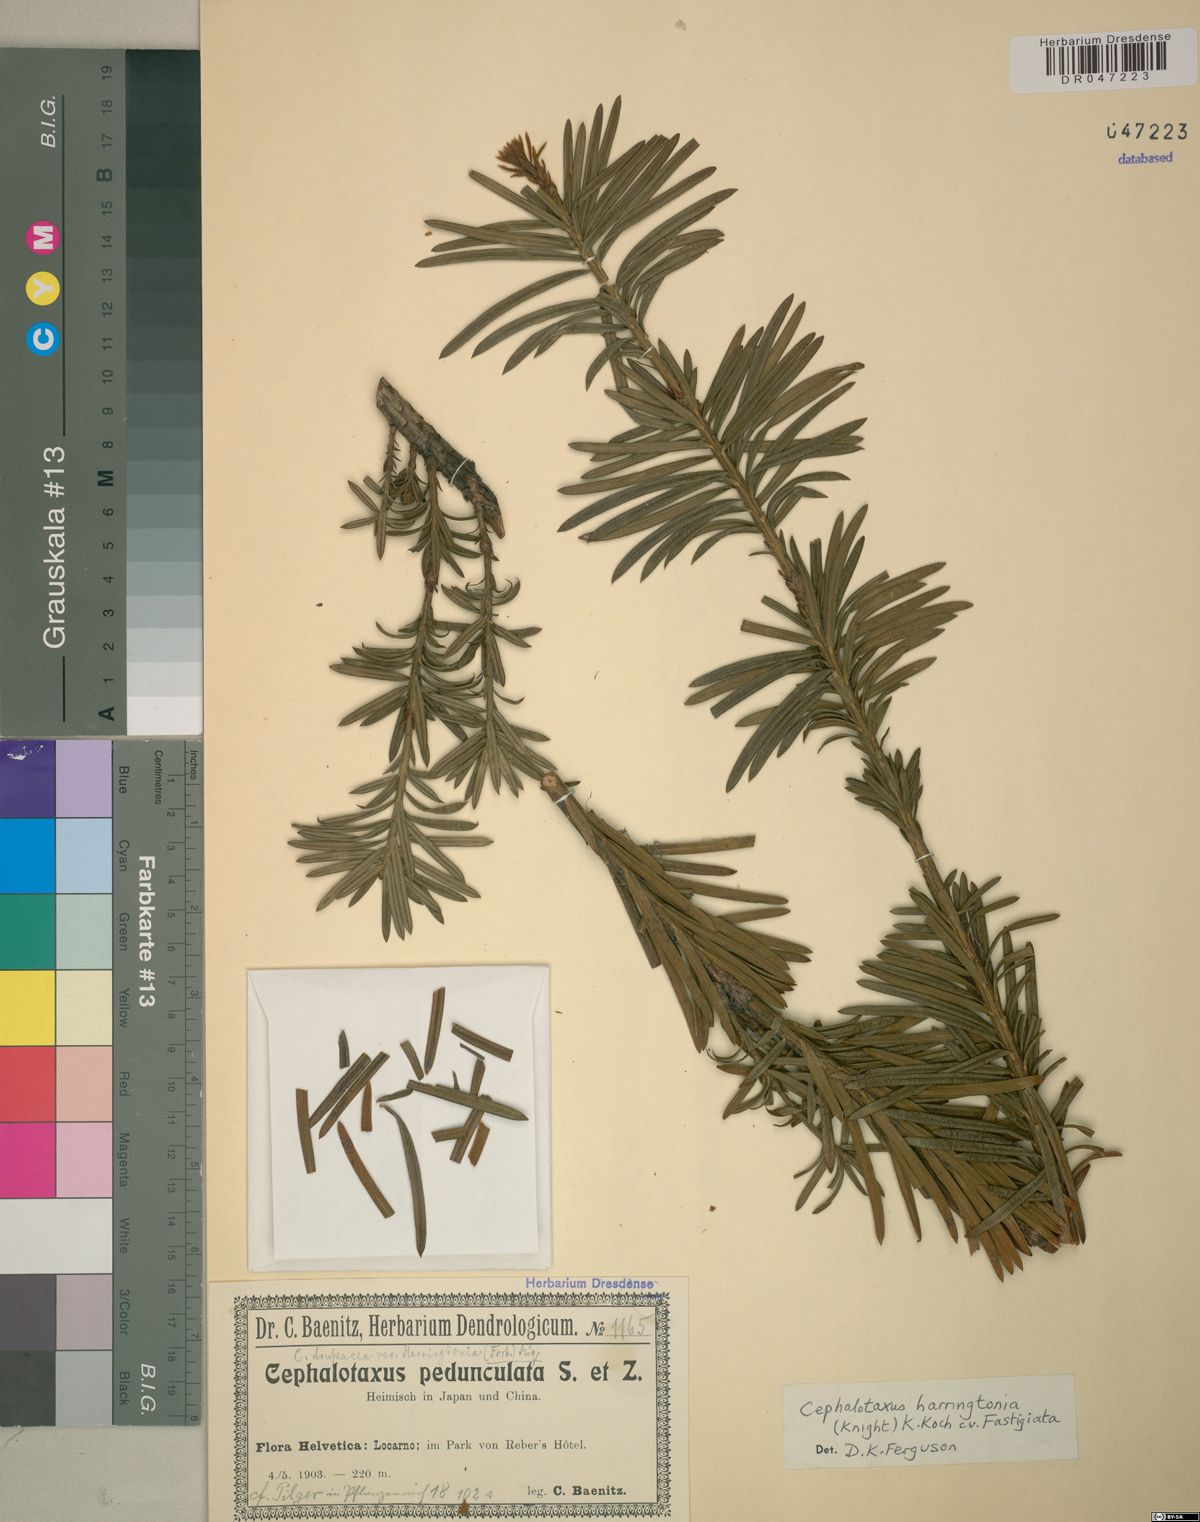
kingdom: Plantae
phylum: Tracheophyta
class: Pinopsida
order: Pinales
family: Cephalotaxaceae
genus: Cephalotaxus
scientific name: Cephalotaxus harringtonia
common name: Japanese plum-yew
